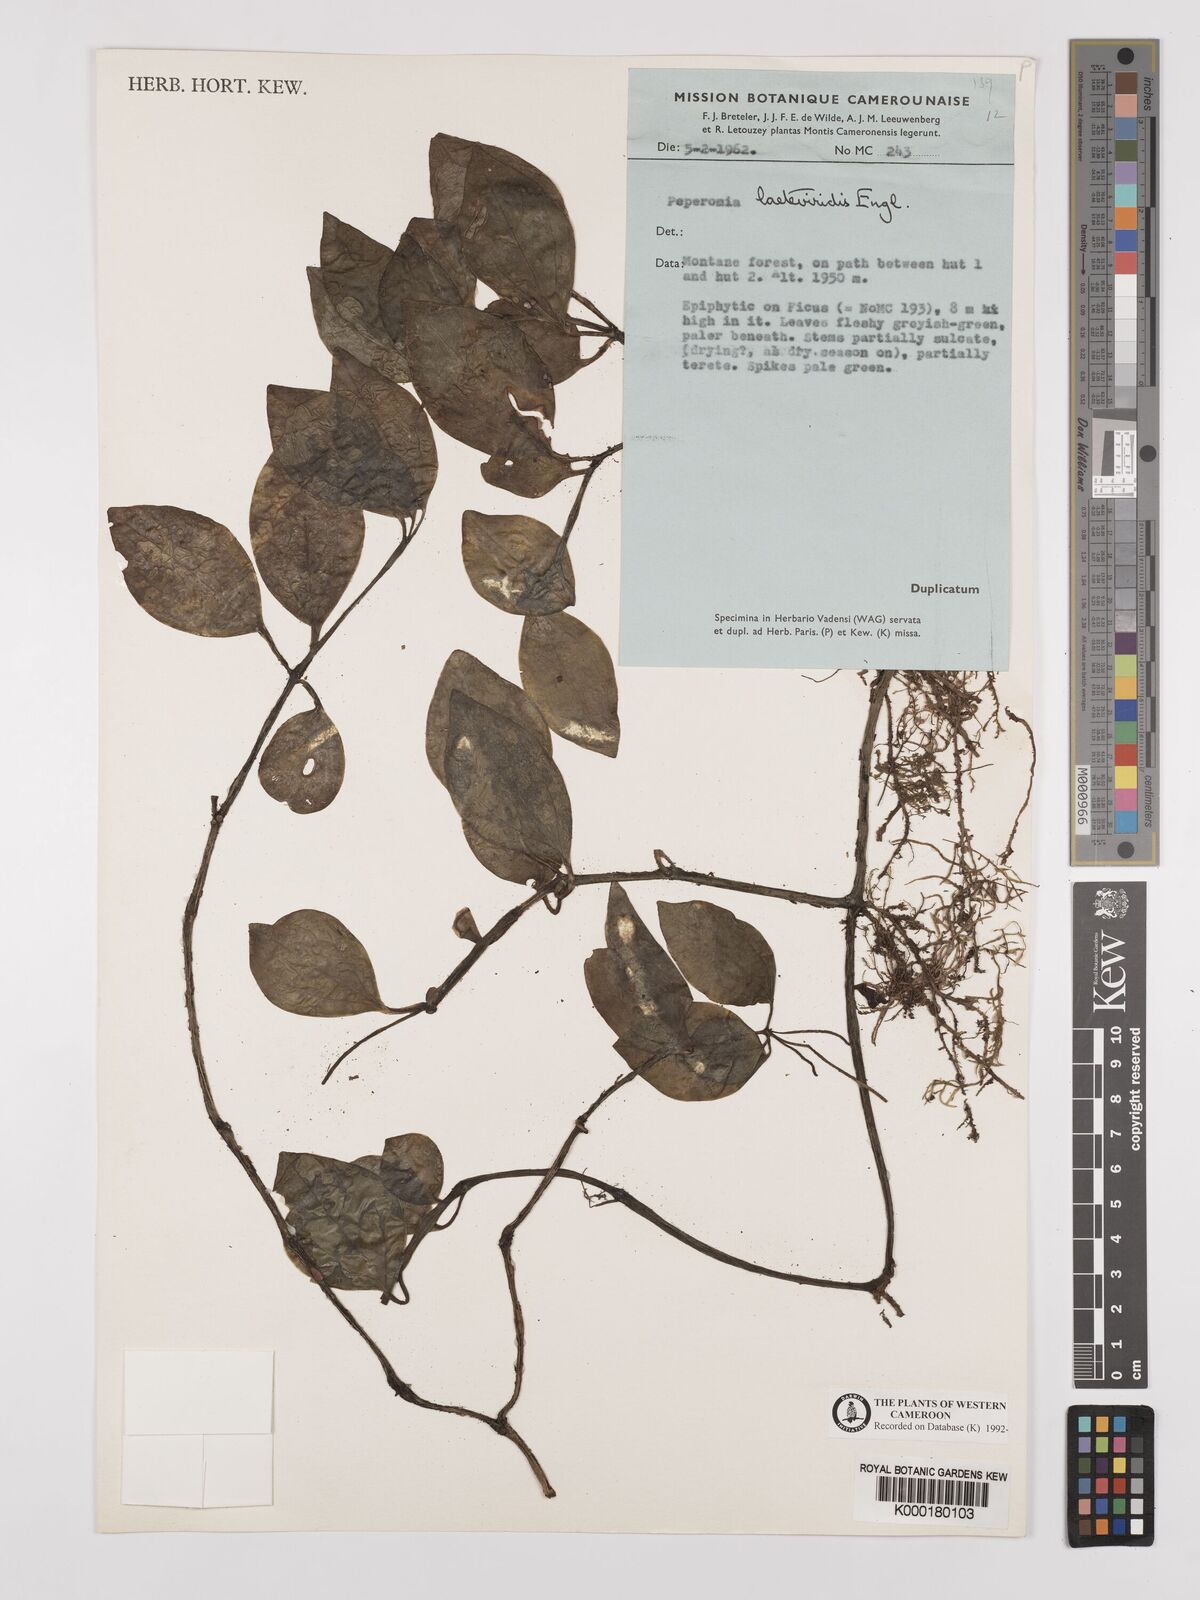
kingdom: Plantae
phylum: Tracheophyta
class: Magnoliopsida
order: Piperales
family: Piperaceae
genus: Peperomia
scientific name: Peperomia laeteviridis
